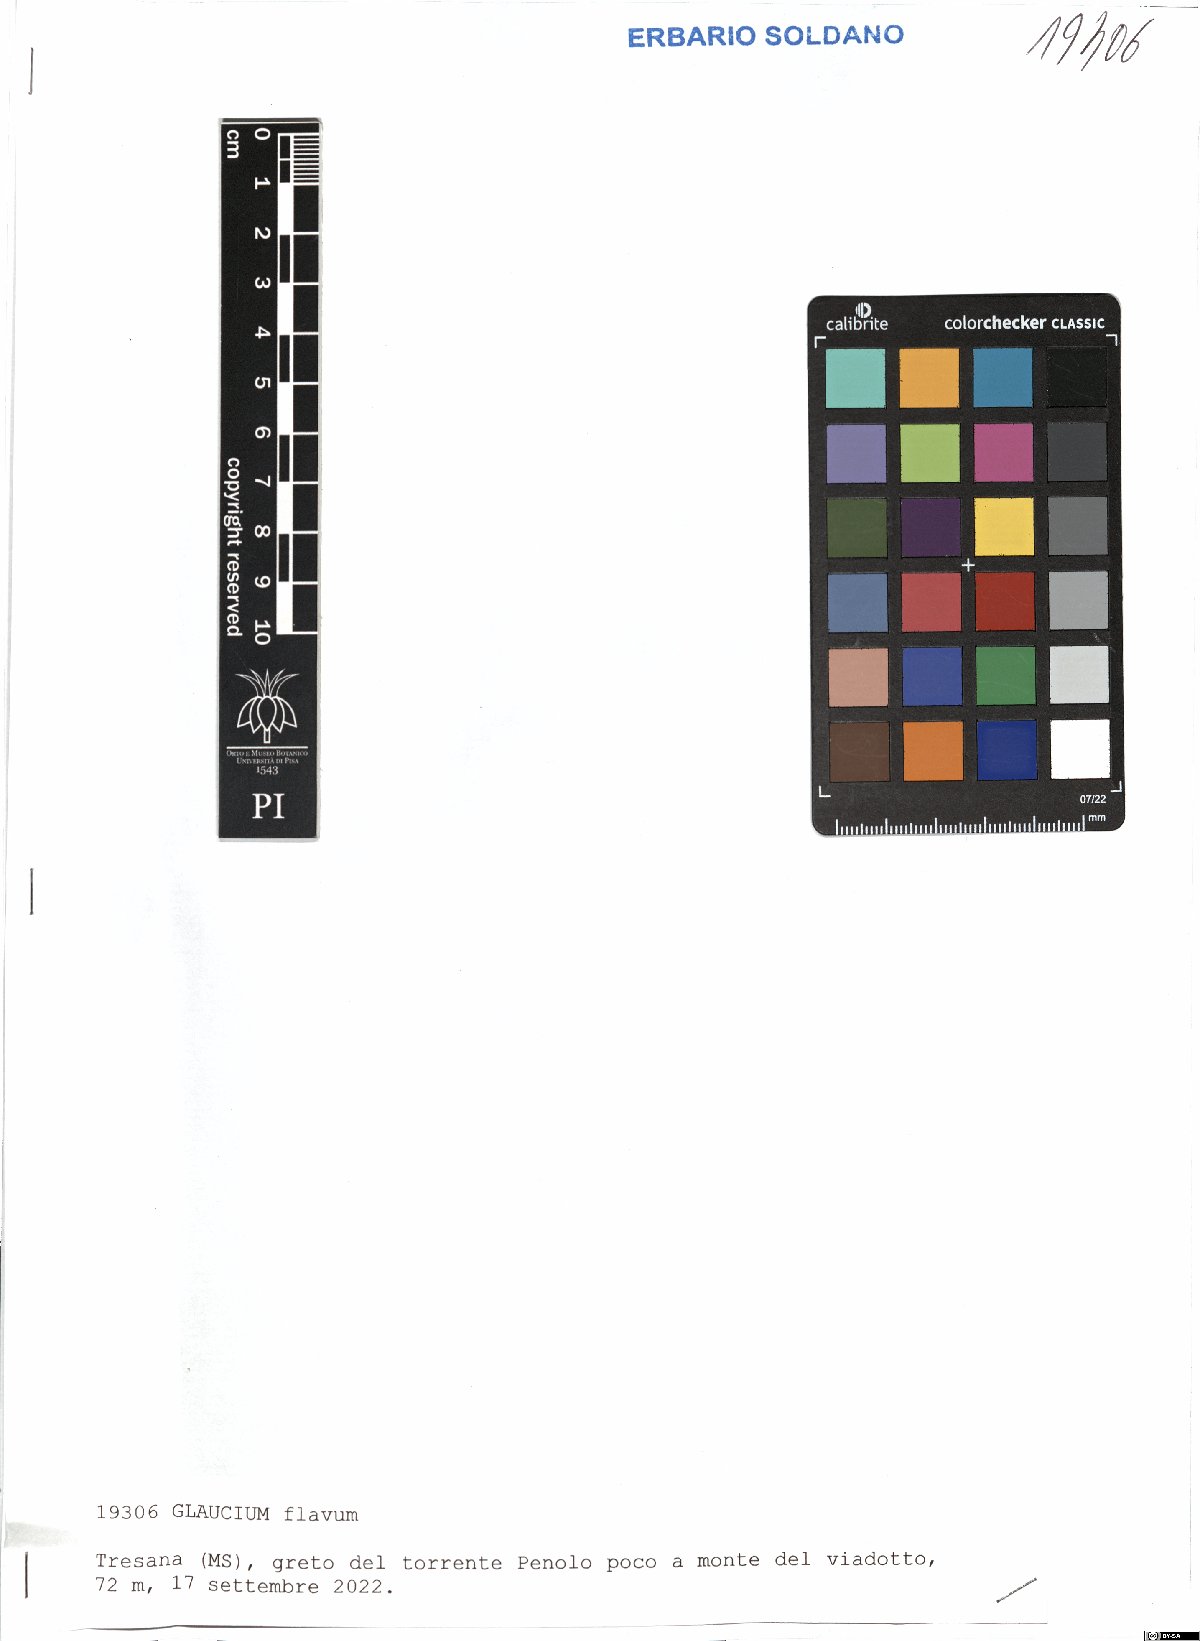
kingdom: Plantae
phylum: Tracheophyta
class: Magnoliopsida
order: Ranunculales
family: Papaveraceae
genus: Glaucium
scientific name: Glaucium flavum
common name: Yellow horned-poppy
